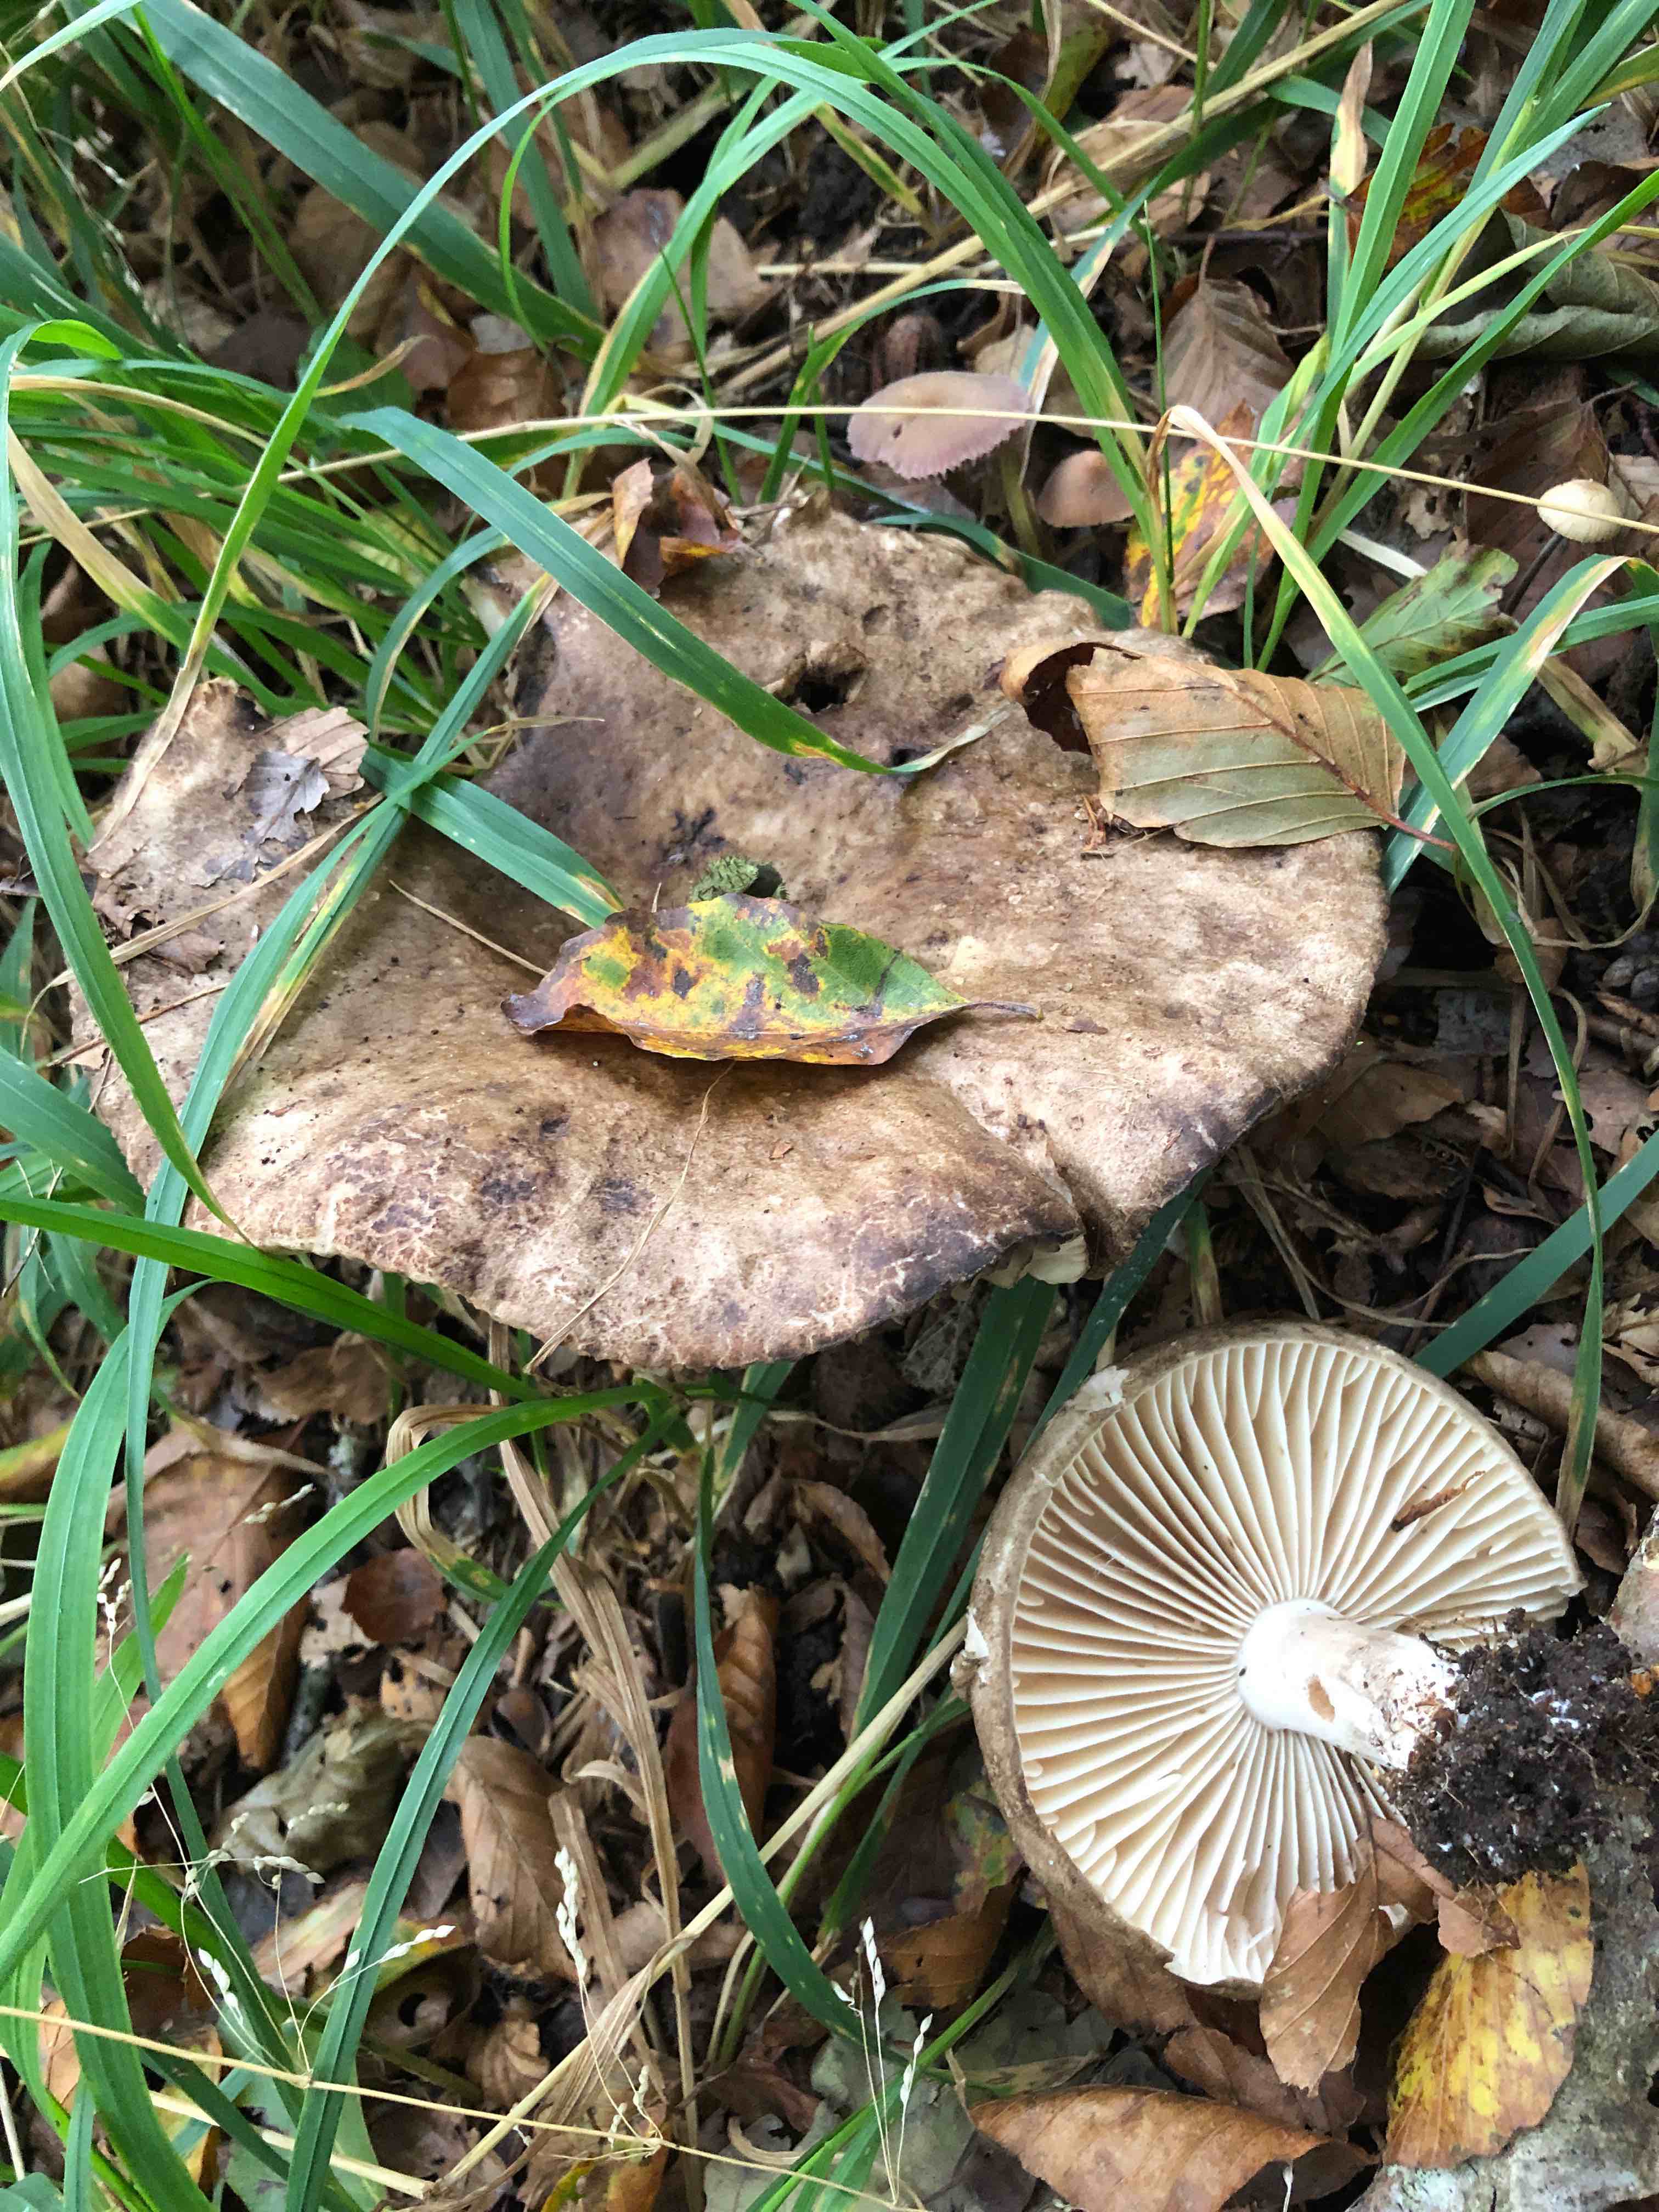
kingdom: Fungi
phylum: Basidiomycota
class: Agaricomycetes
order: Russulales
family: Russulaceae
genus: Russula
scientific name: Russula adusta
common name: sværtende skørhat
